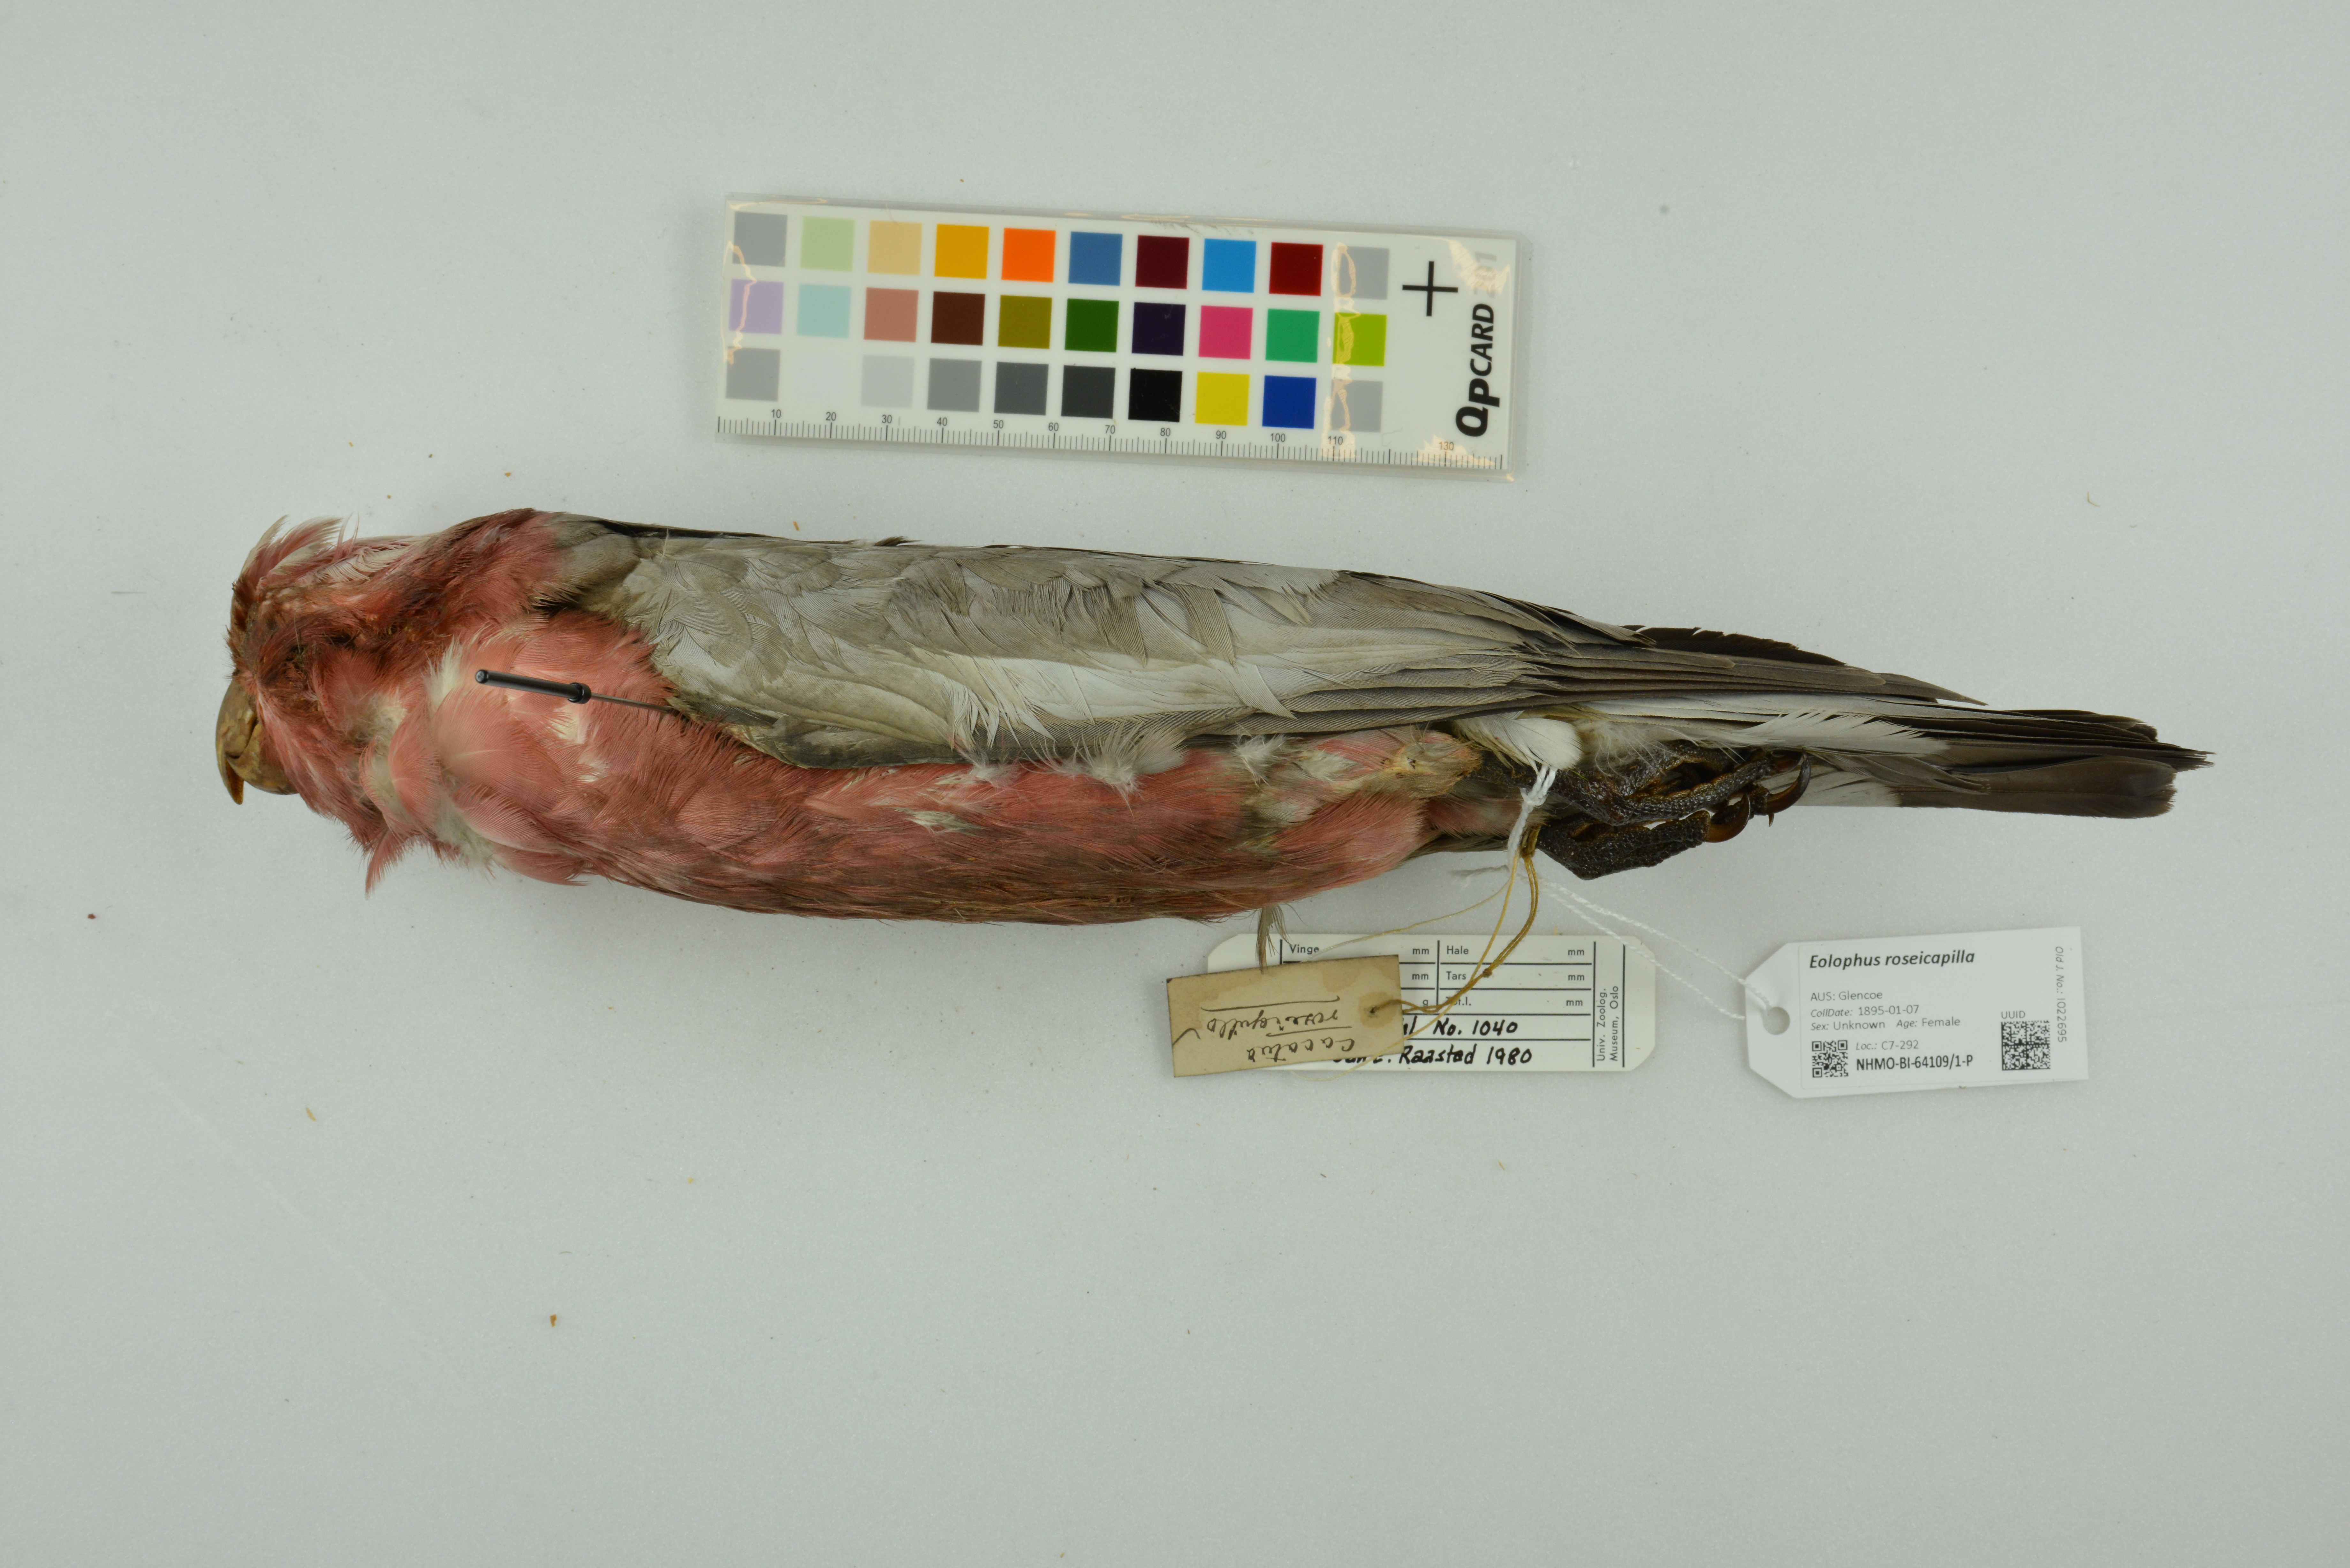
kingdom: Animalia
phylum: Chordata
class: Aves
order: Psittaciformes
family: Psittacidae
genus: Eolophus
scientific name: Eolophus roseicapilla
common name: Galah
